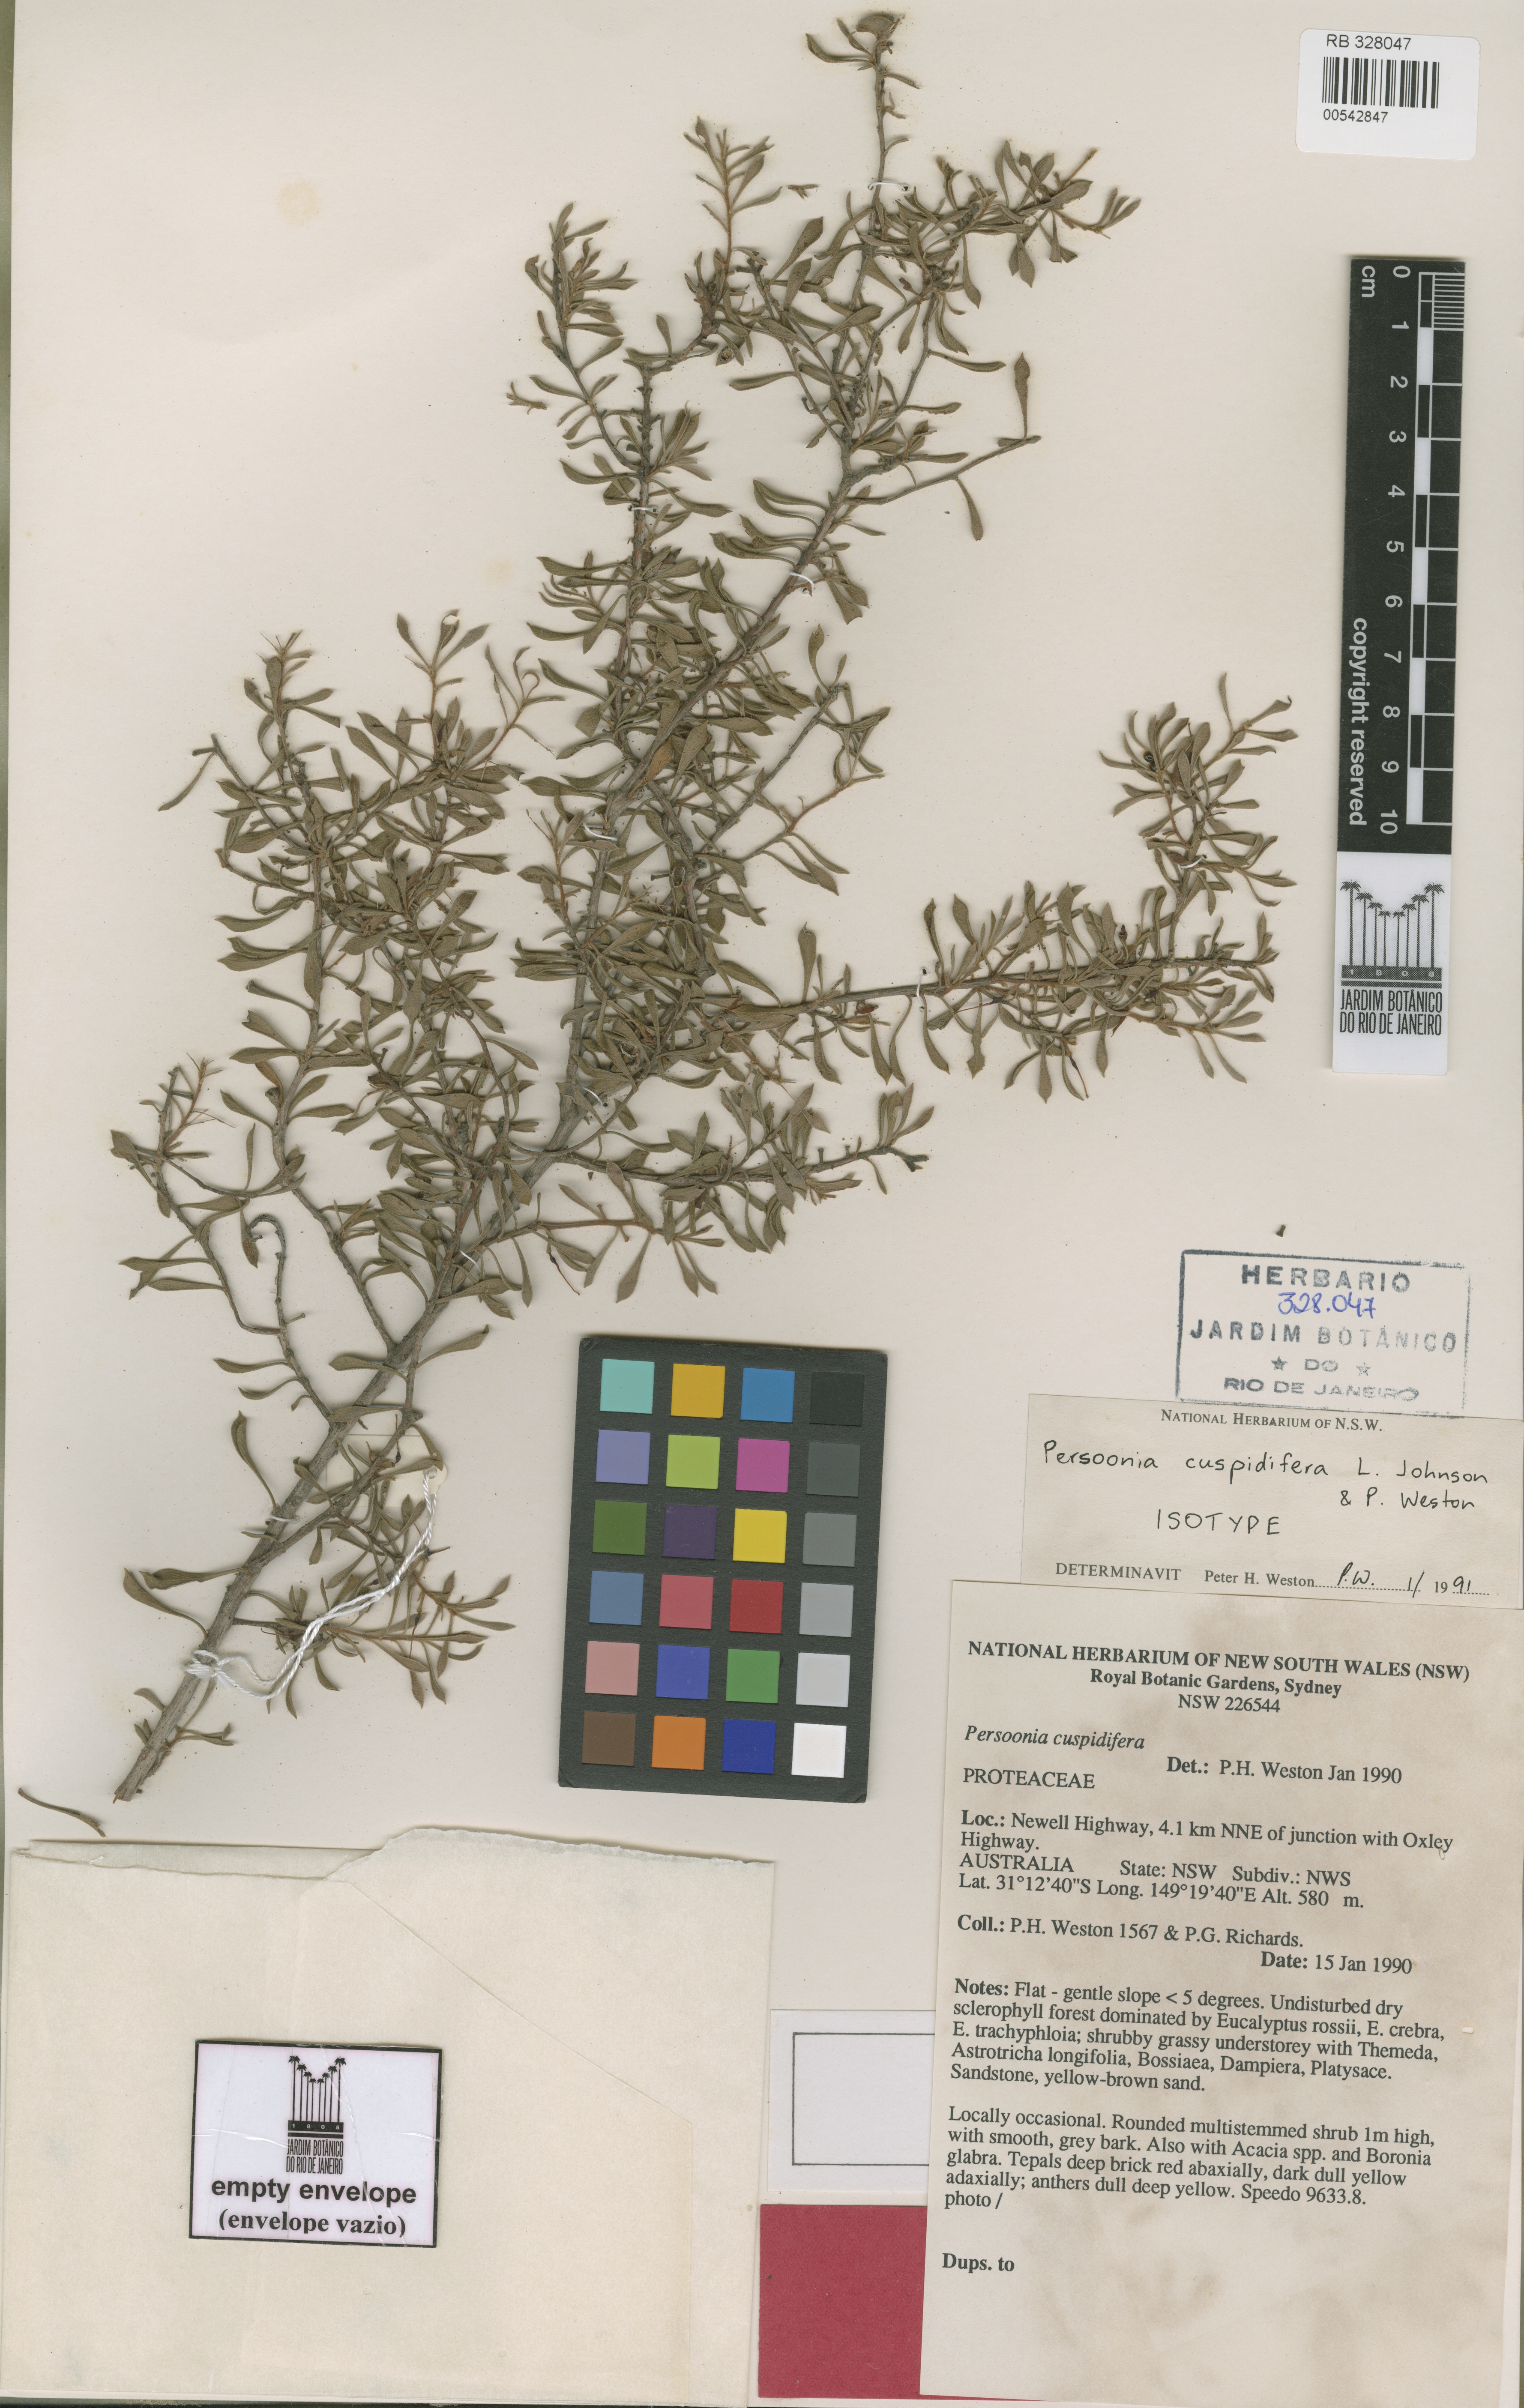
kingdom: Plantae
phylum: Tracheophyta
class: Magnoliopsida
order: Proteales
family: Proteaceae
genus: Persoonia
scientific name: Persoonia cuspidifera
